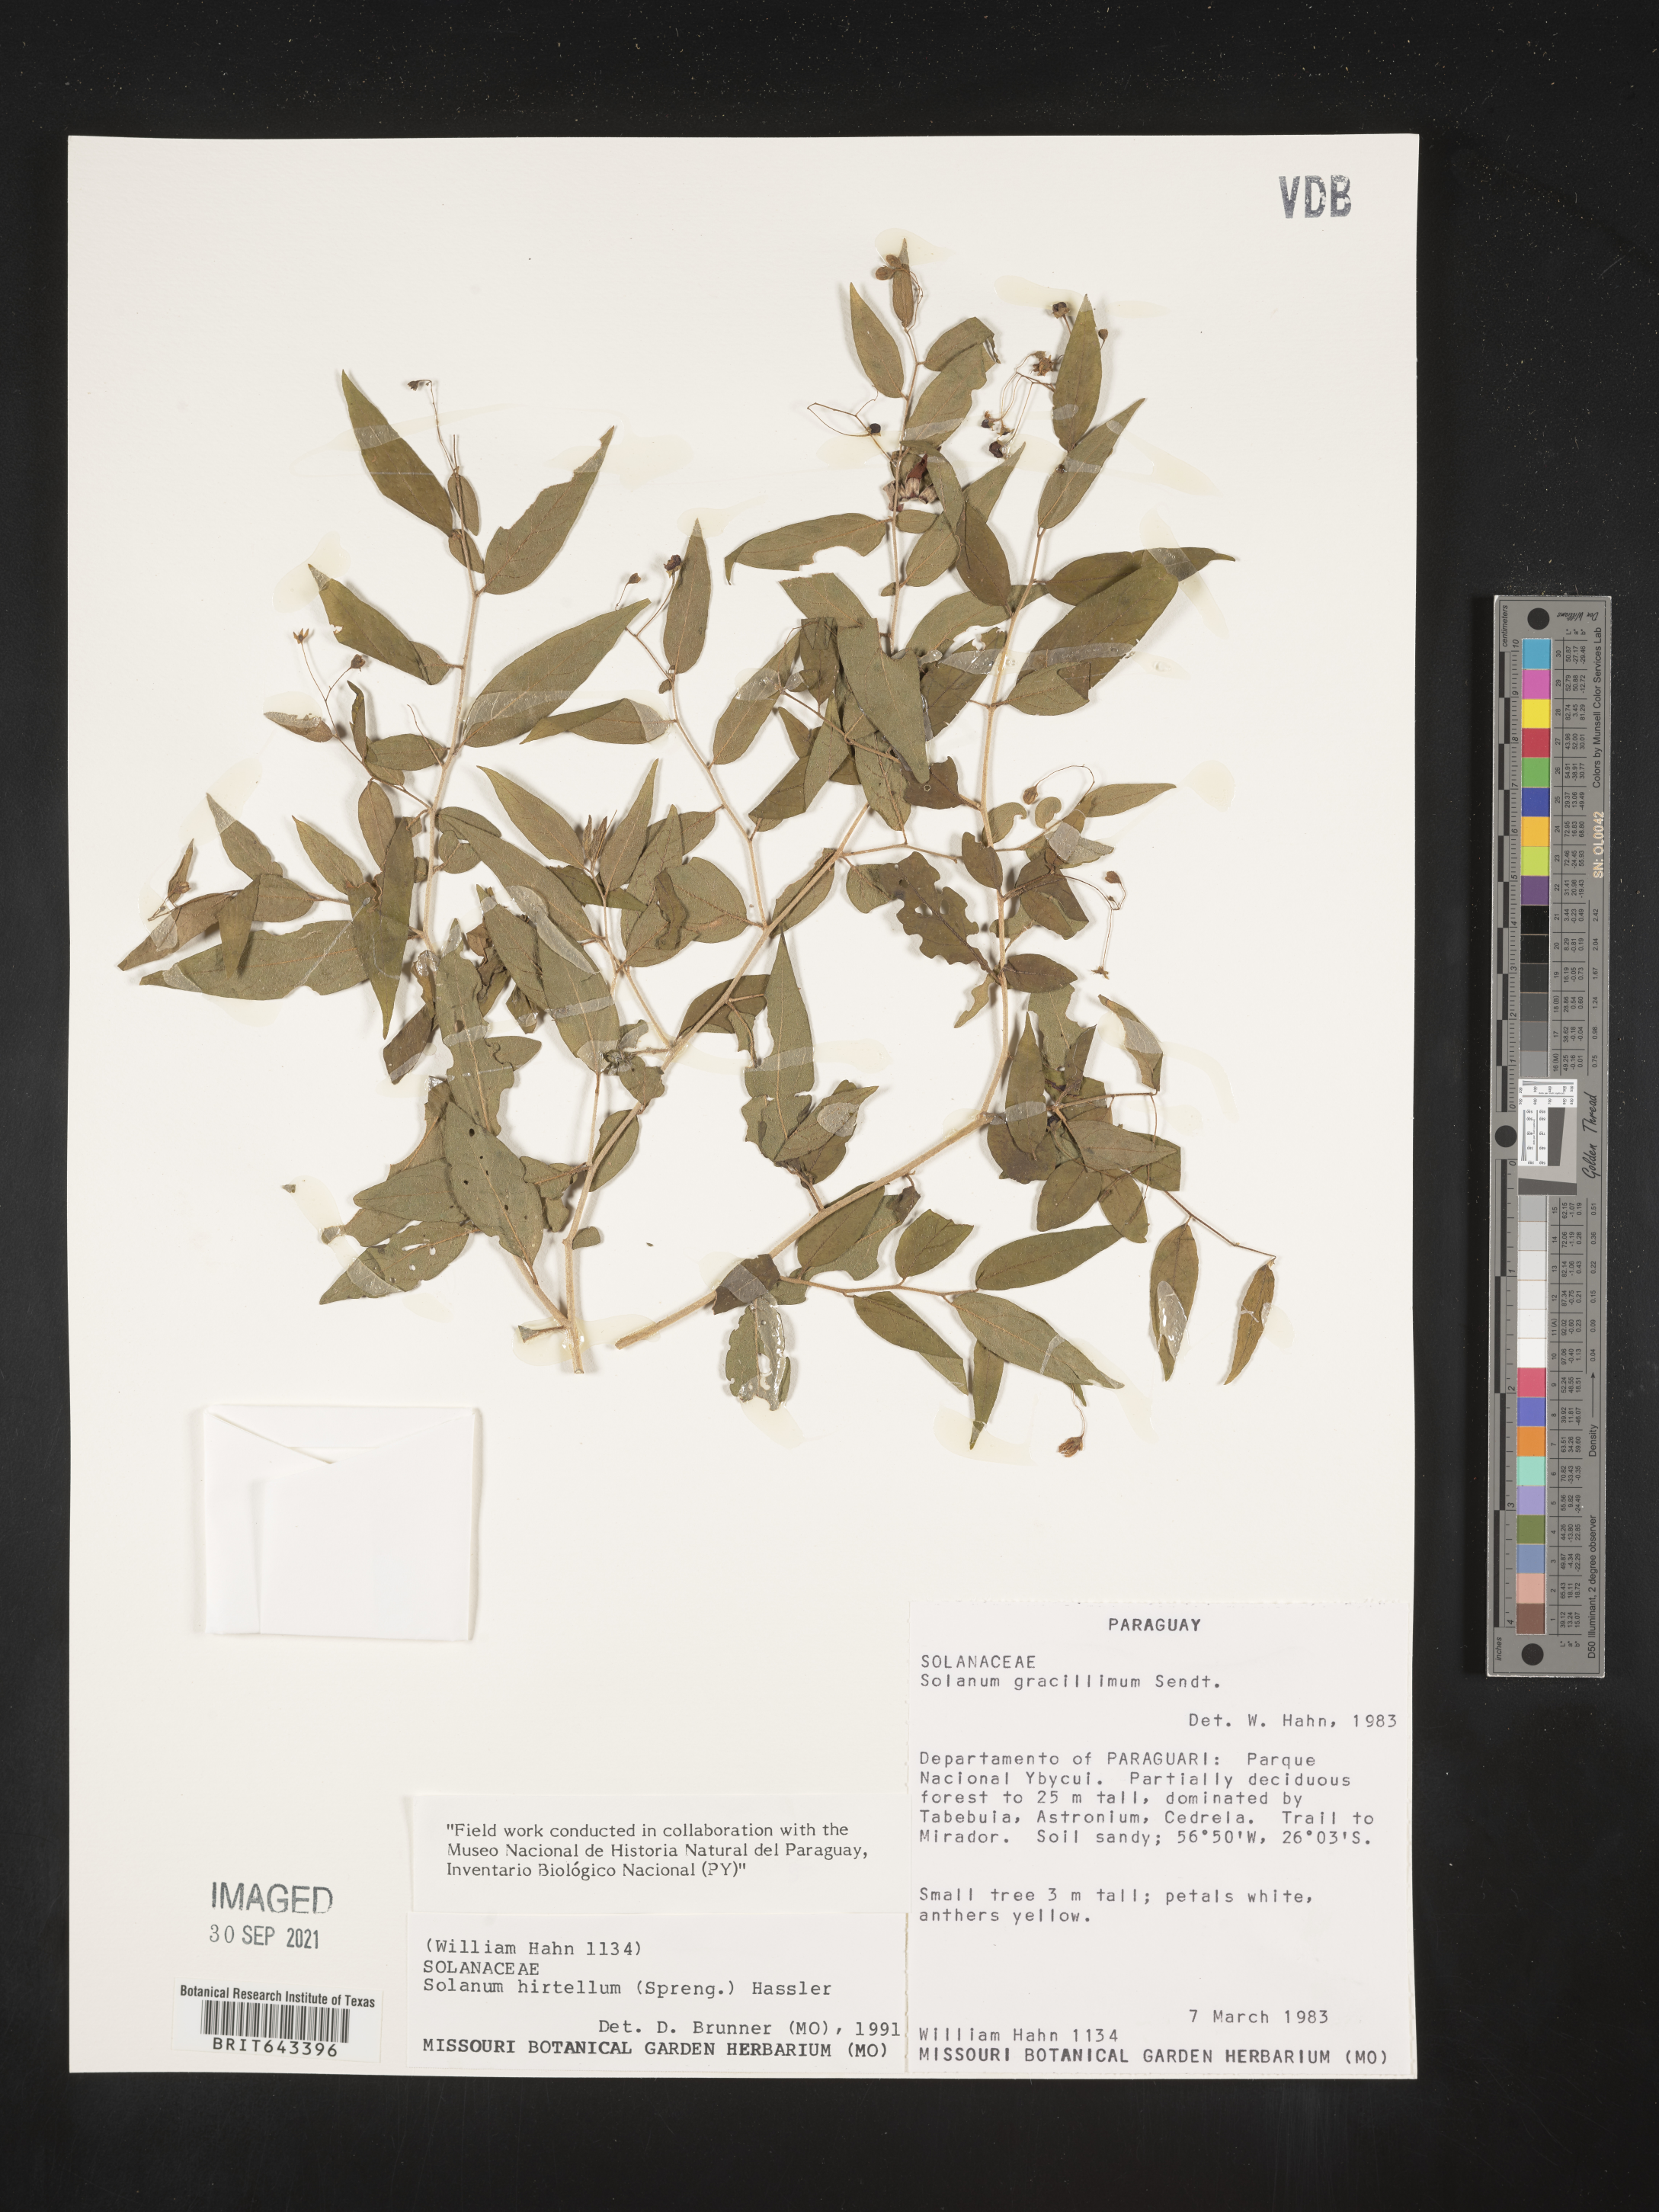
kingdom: Plantae
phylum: Tracheophyta
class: Magnoliopsida
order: Solanales
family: Solanaceae
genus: Solanum
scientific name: Solanum
